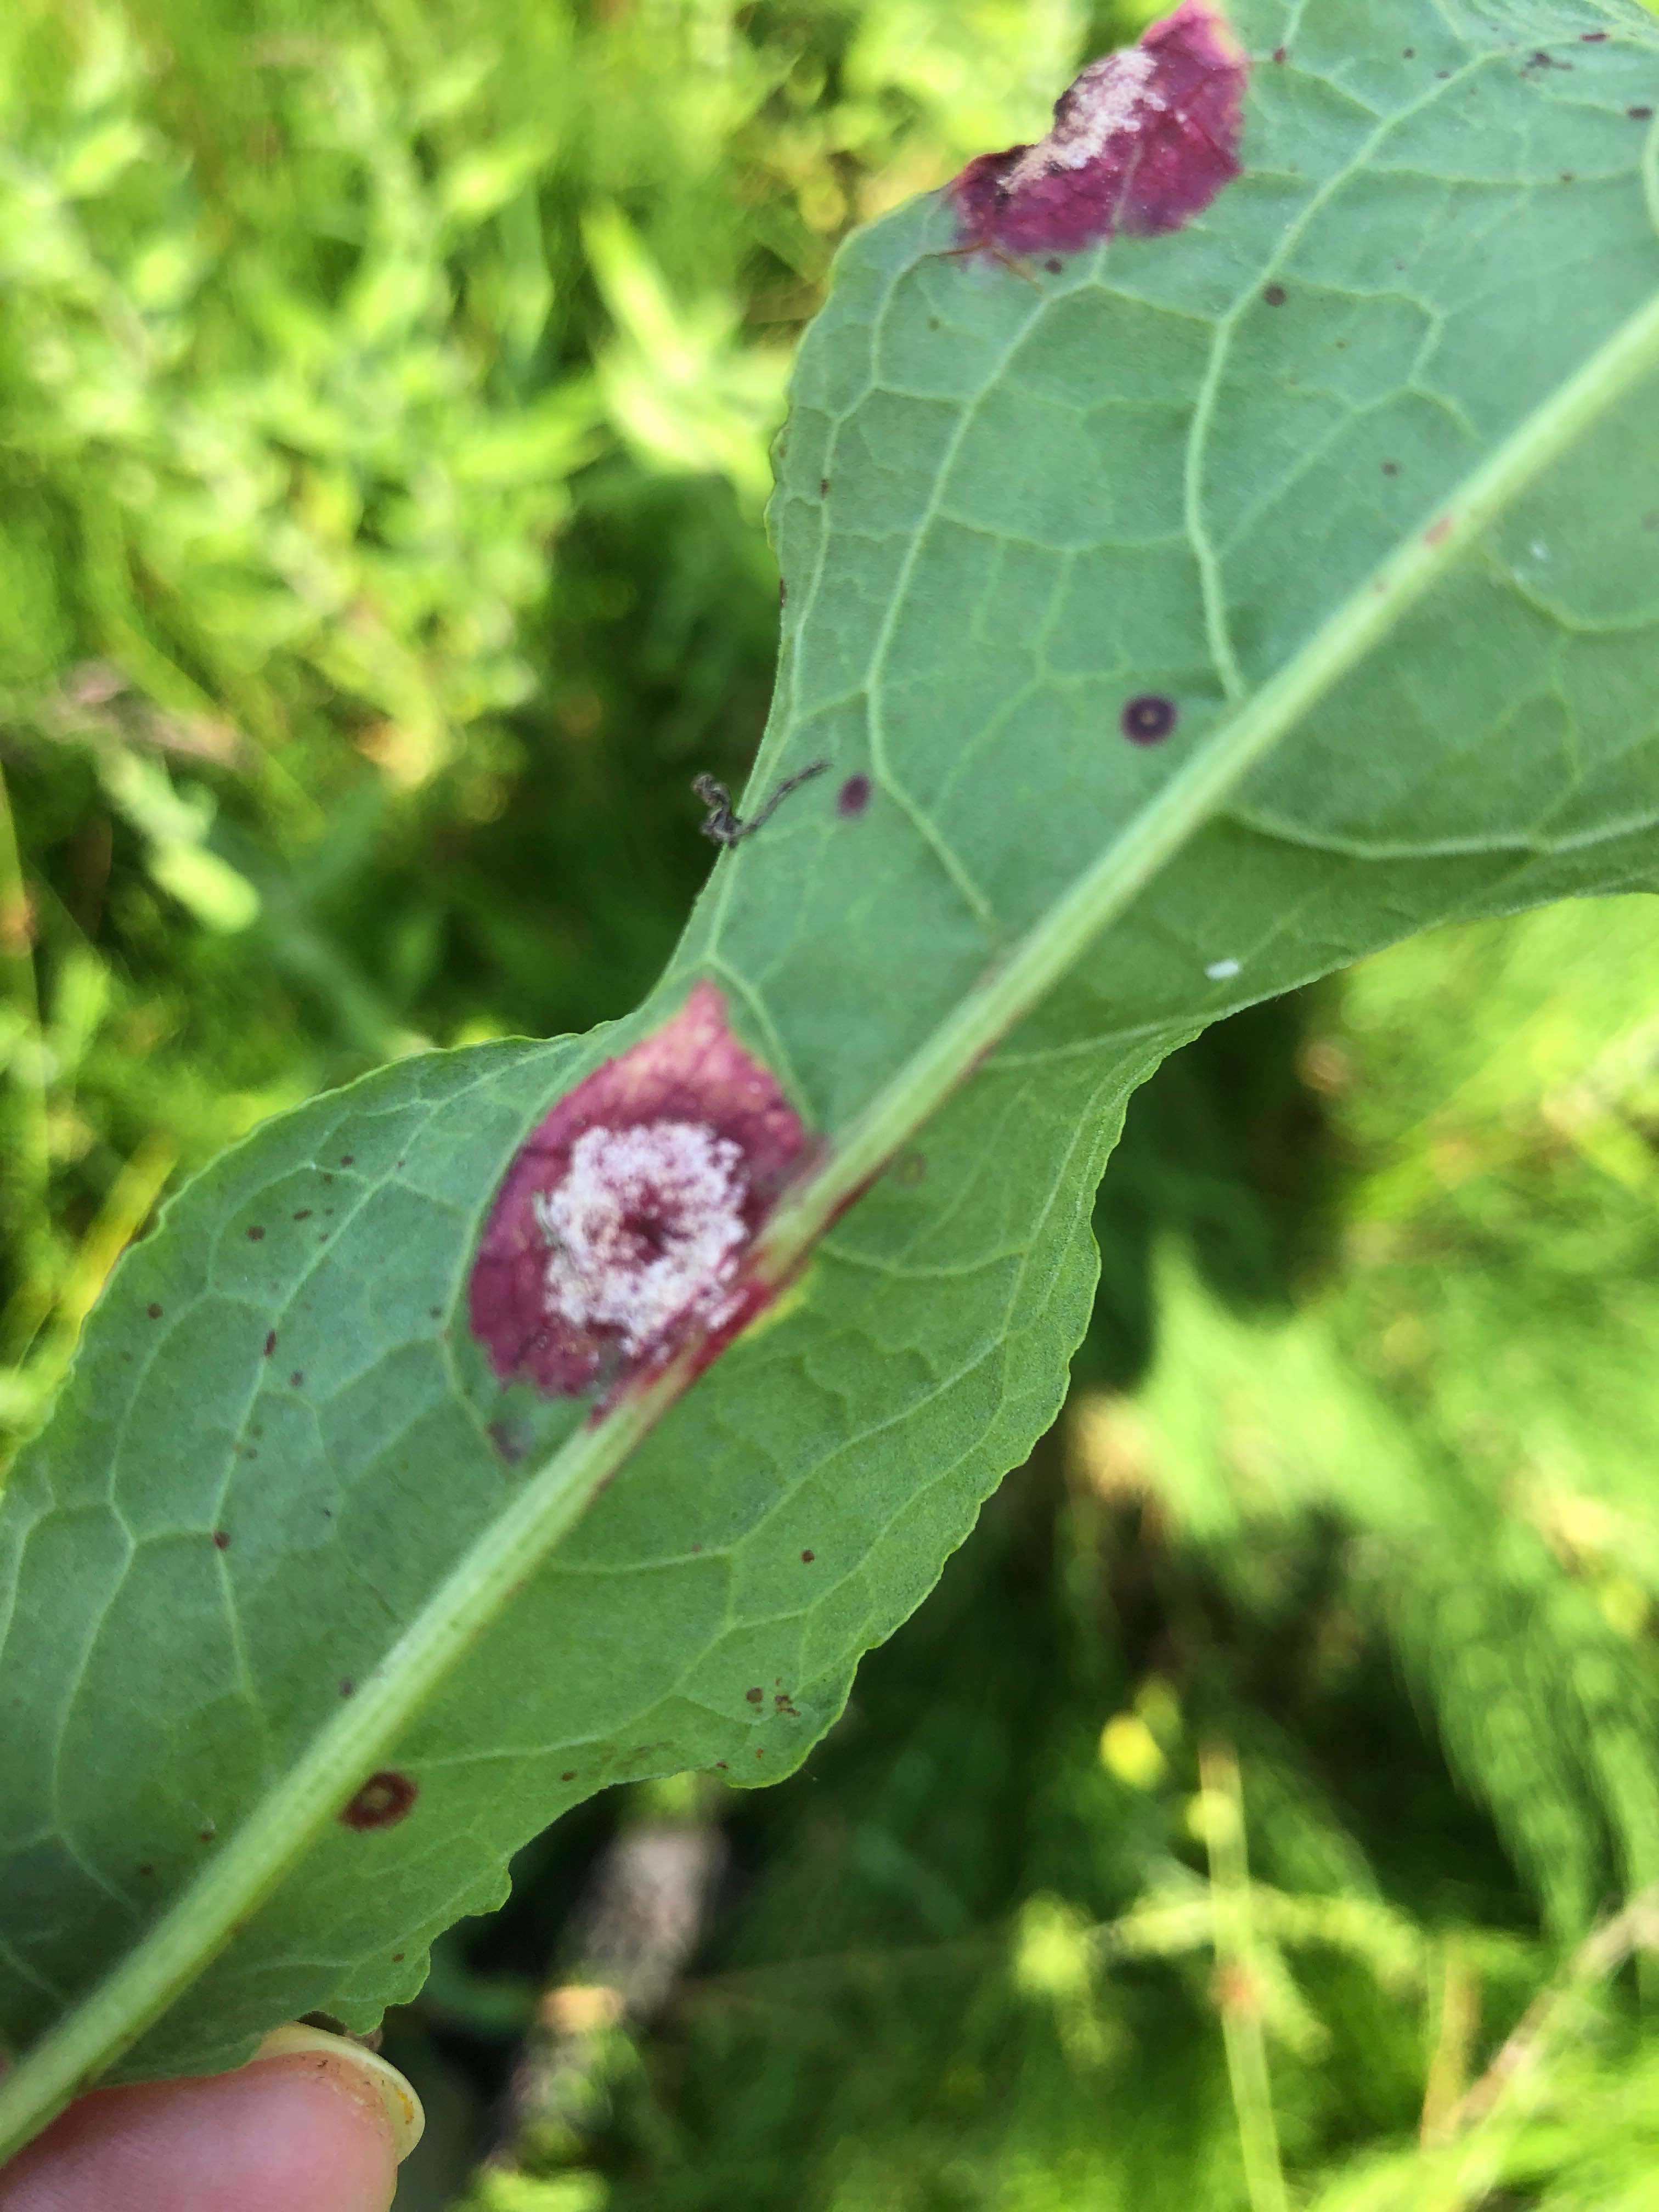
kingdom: Fungi
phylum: Basidiomycota
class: Pucciniomycetes
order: Pucciniales
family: Pucciniaceae
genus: Puccinia
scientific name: Puccinia phragmitis
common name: tagrør-tvecellerust
